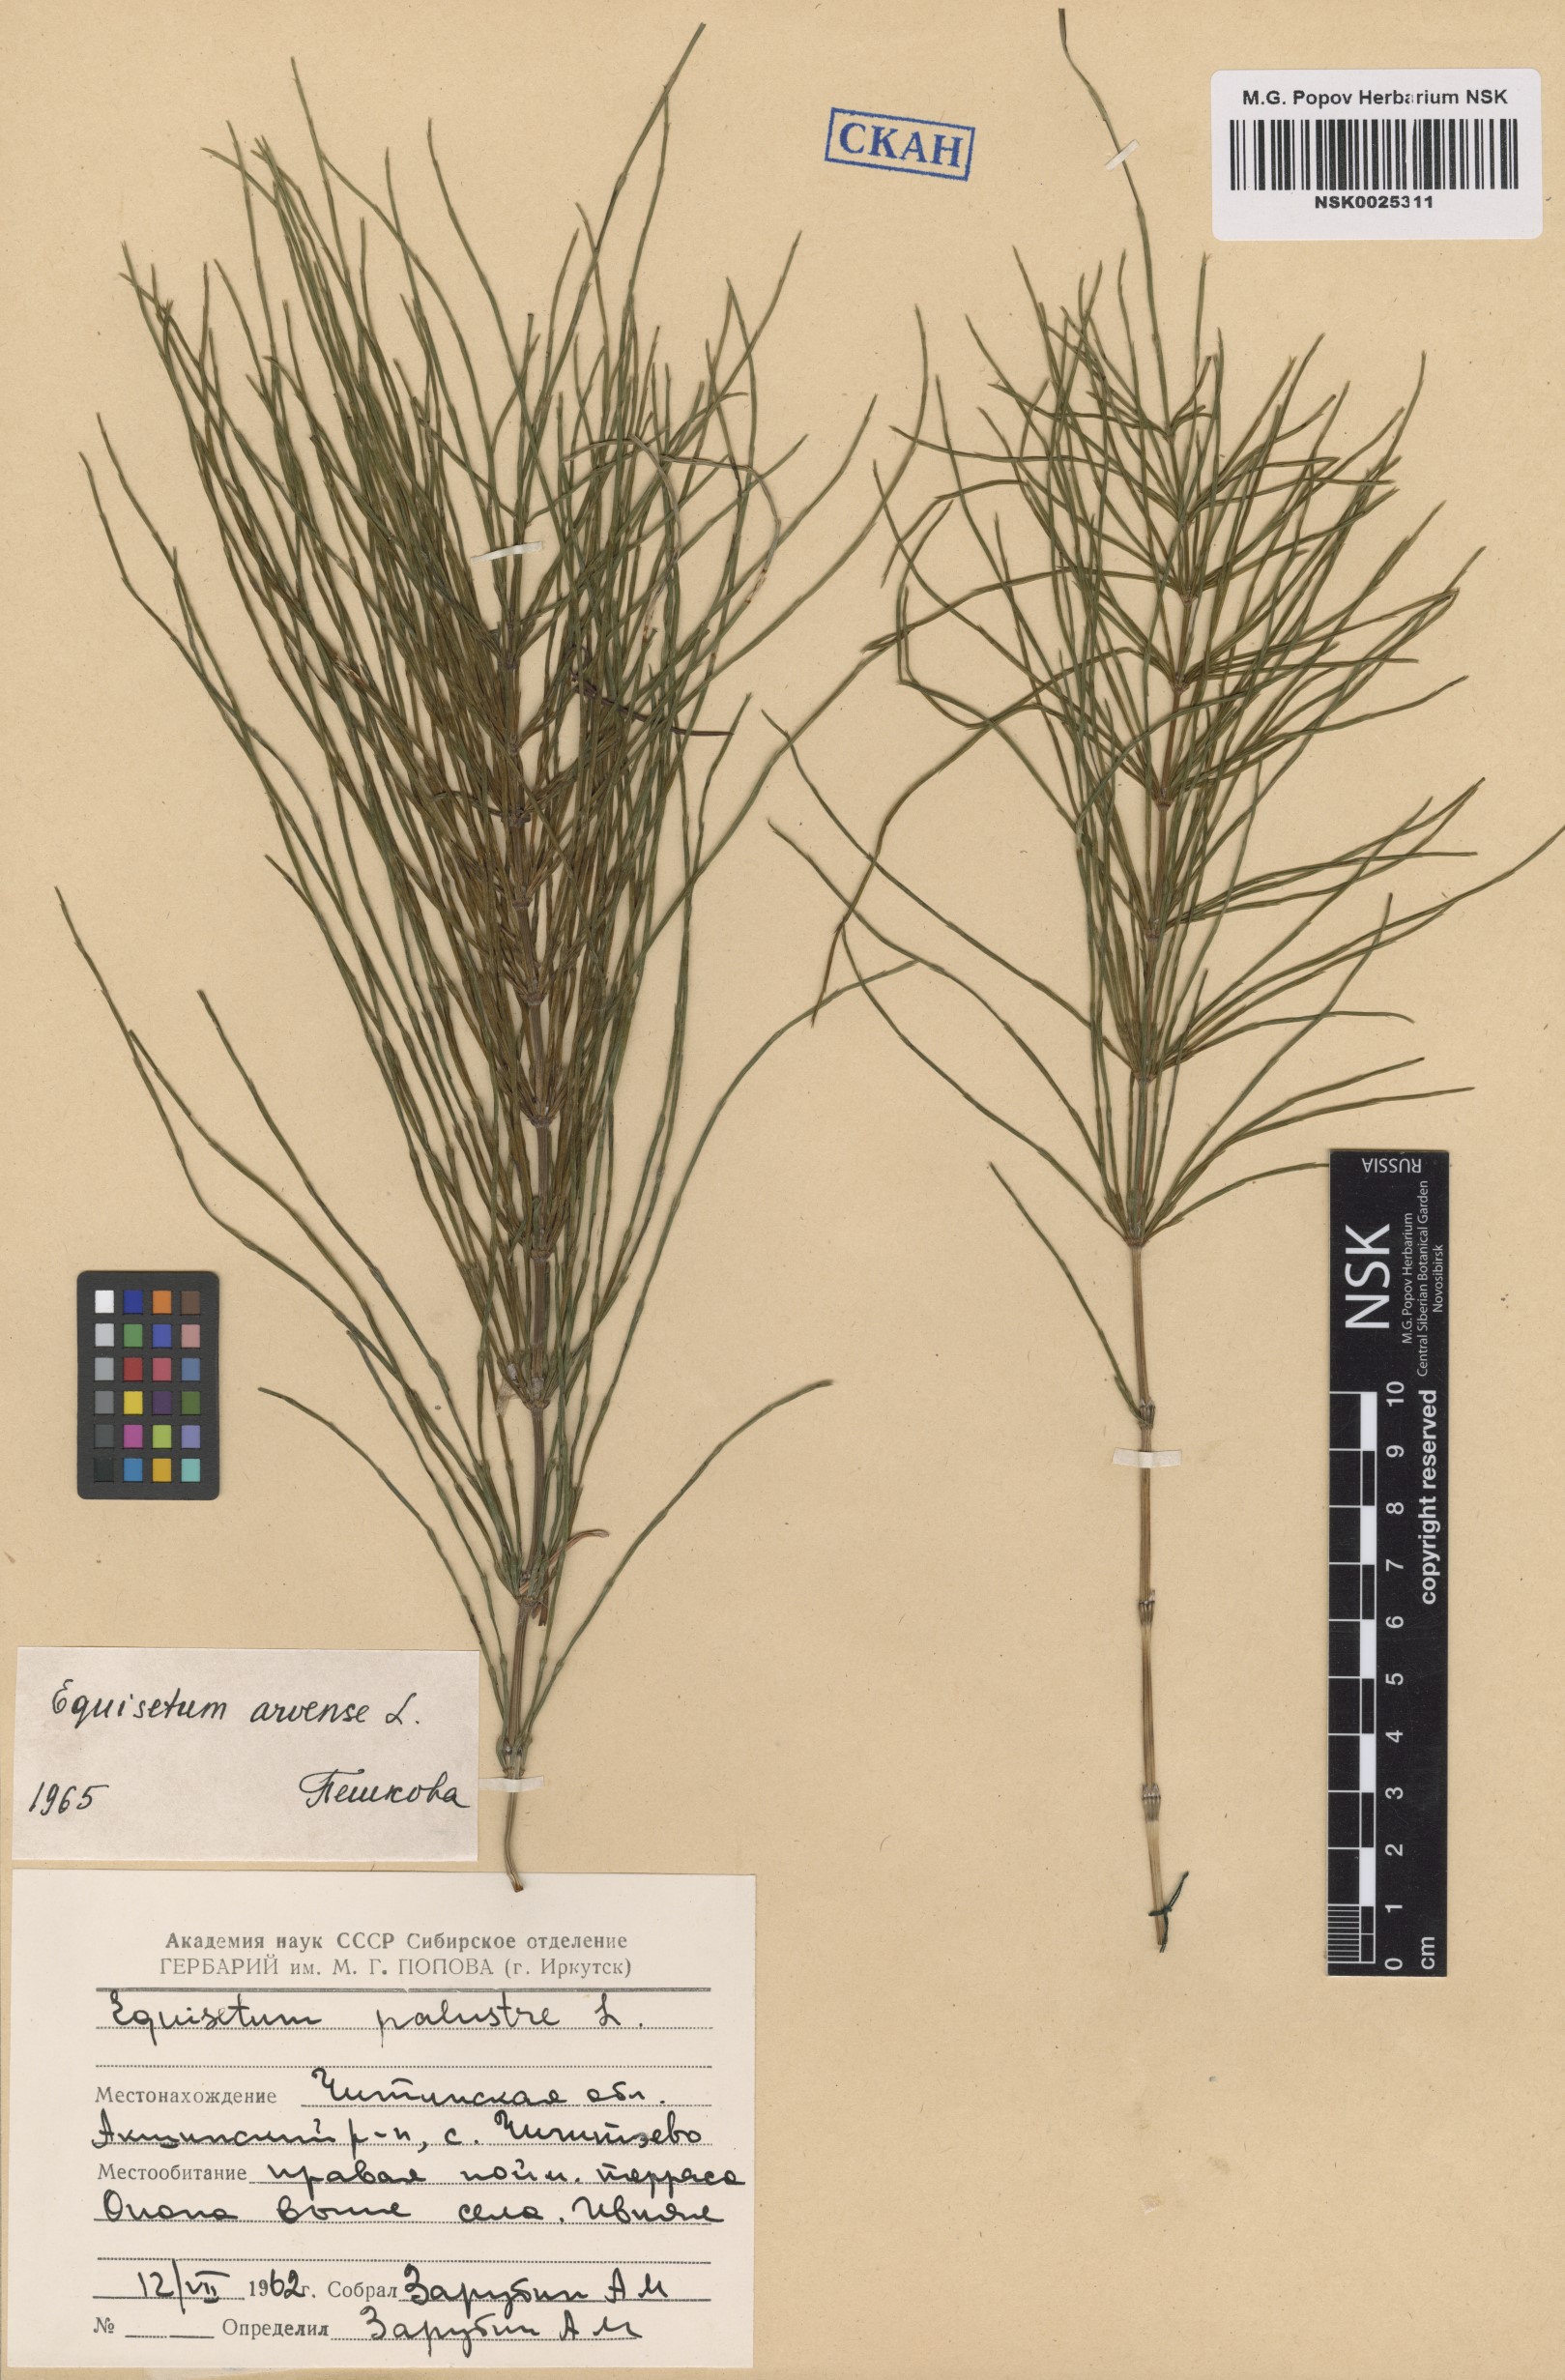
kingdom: Plantae
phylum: Tracheophyta
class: Polypodiopsida
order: Equisetales
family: Equisetaceae
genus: Equisetum
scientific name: Equisetum arvense
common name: Field horsetail
